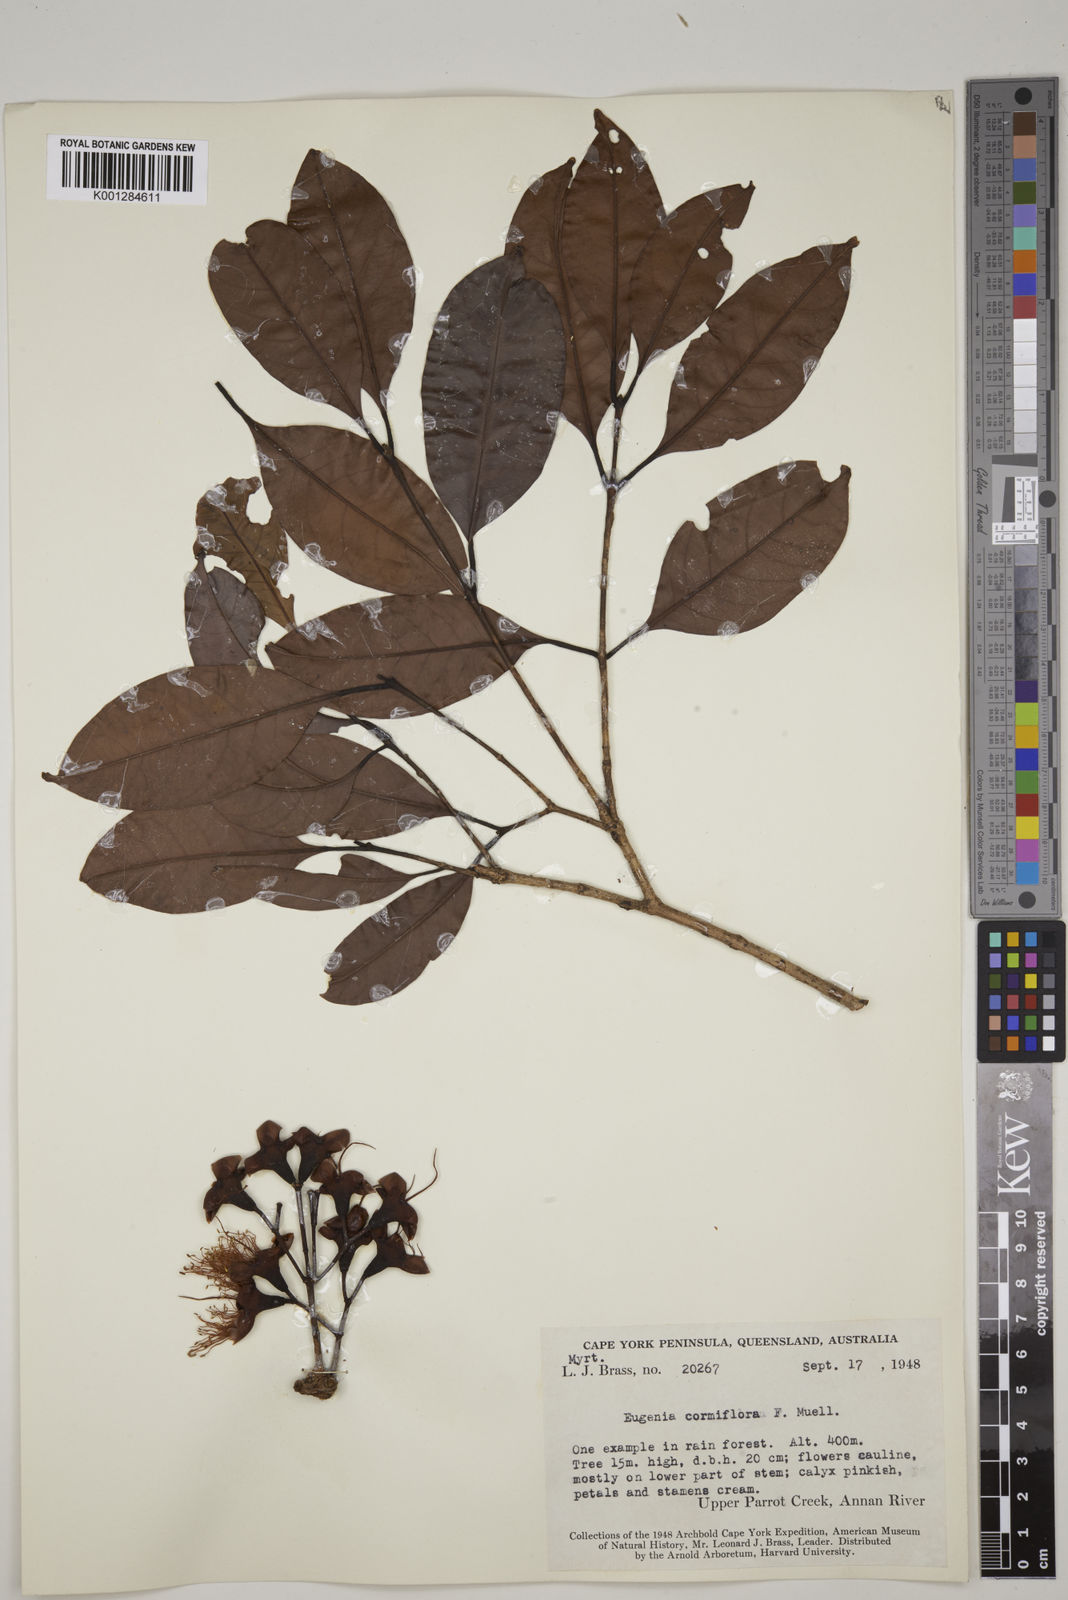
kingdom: Plantae
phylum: Tracheophyta
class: Magnoliopsida
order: Myrtales
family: Myrtaceae
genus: Syzygium
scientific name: Syzygium cormiflorum
